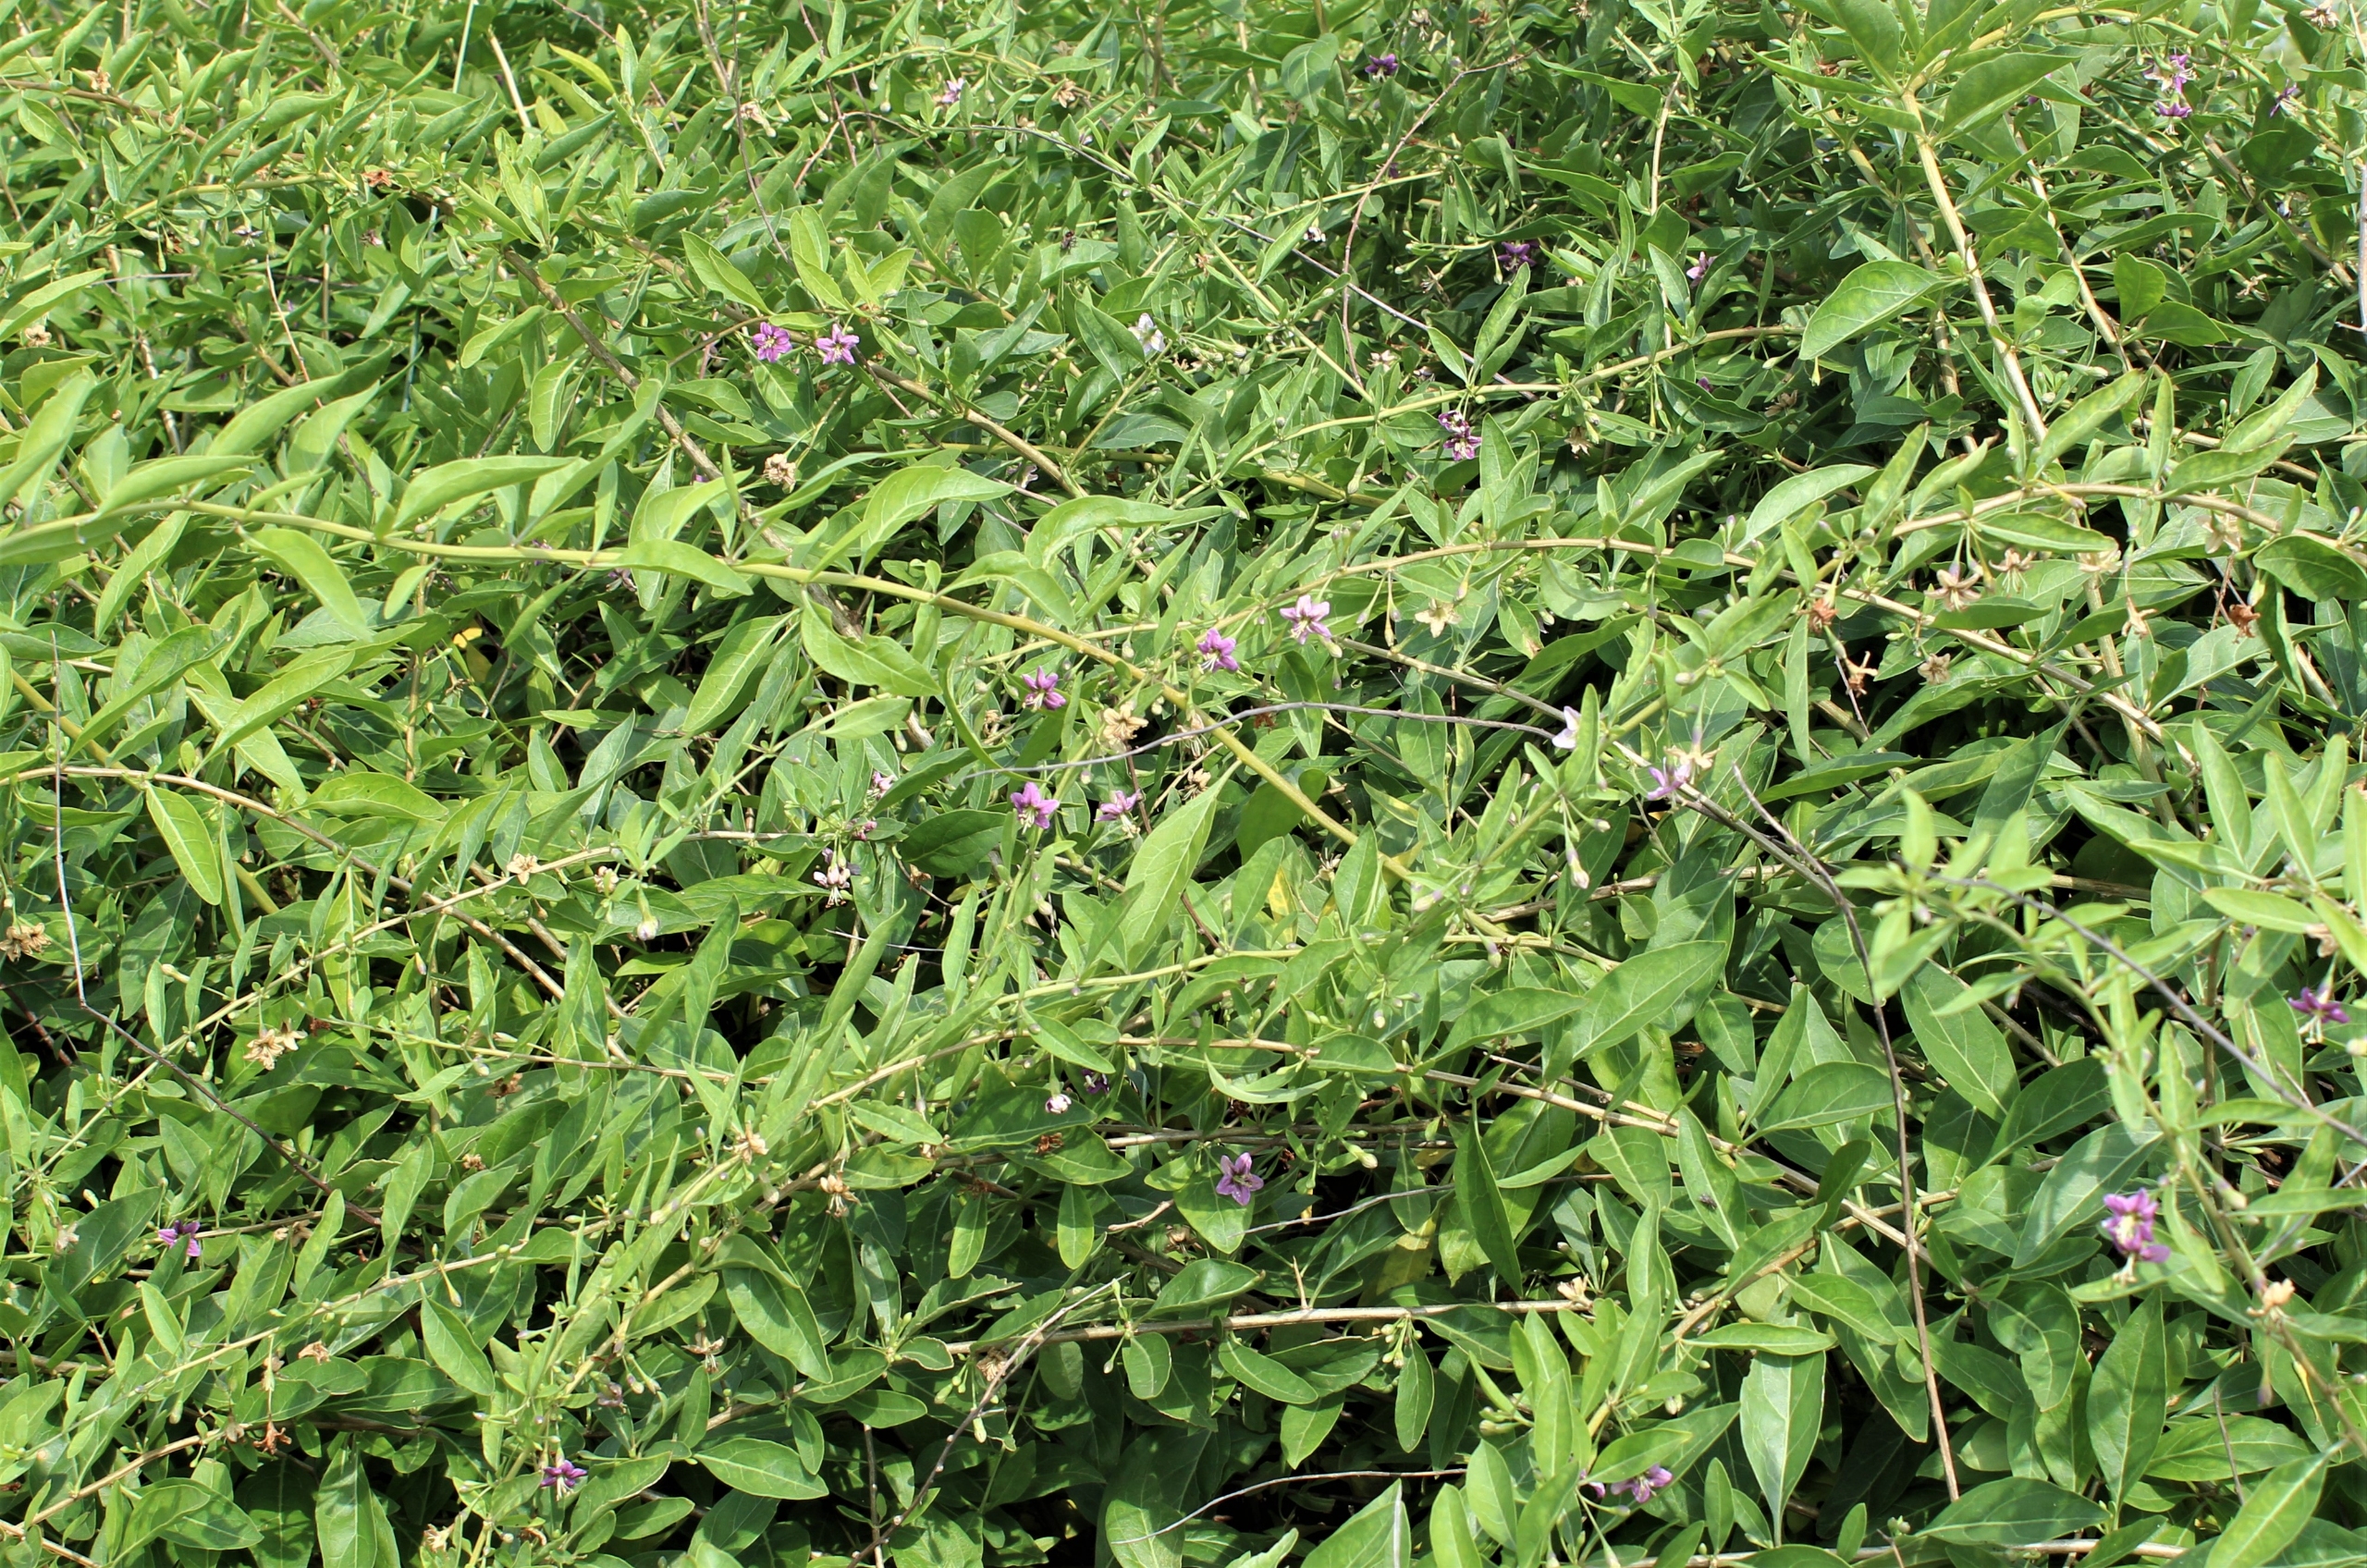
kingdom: Plantae
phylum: Tracheophyta
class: Magnoliopsida
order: Solanales
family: Solanaceae
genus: Lycium
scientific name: Lycium barbarum
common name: Bukketorn
